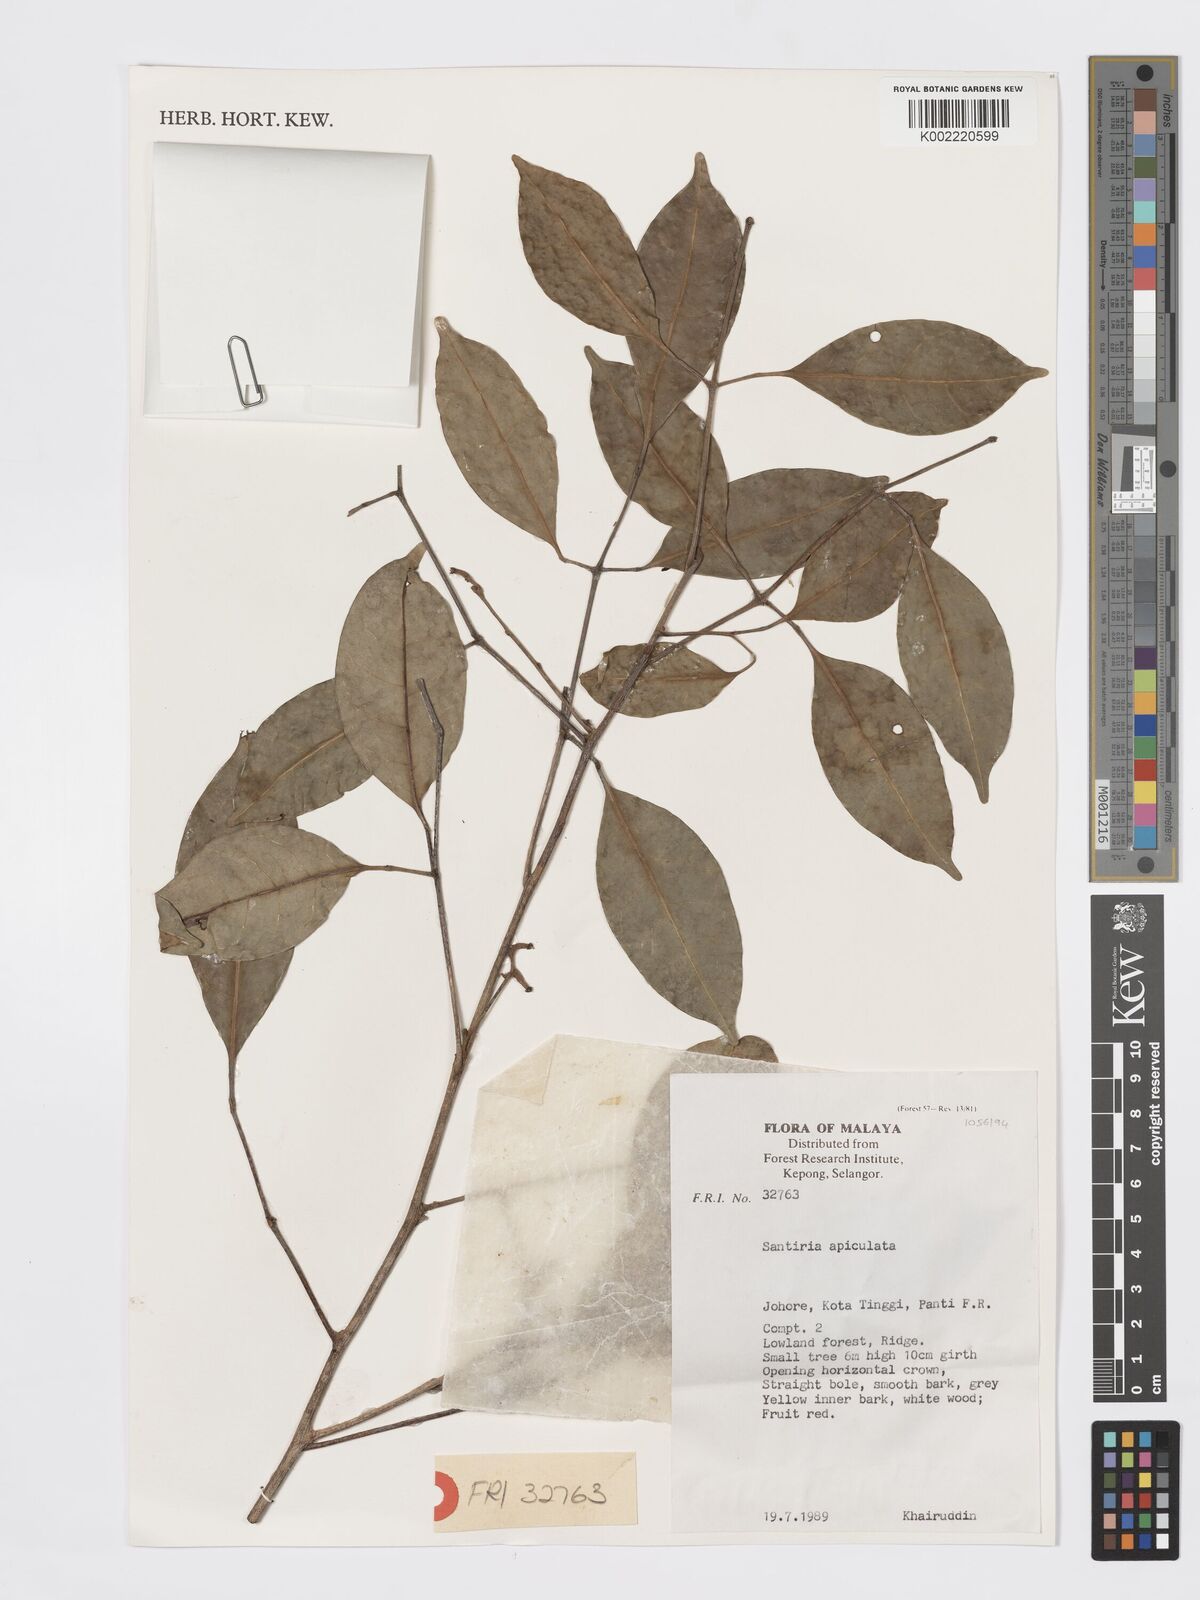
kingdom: Plantae
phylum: Tracheophyta
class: Magnoliopsida
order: Sapindales
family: Burseraceae
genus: Santiria
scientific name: Santiria apiculata
